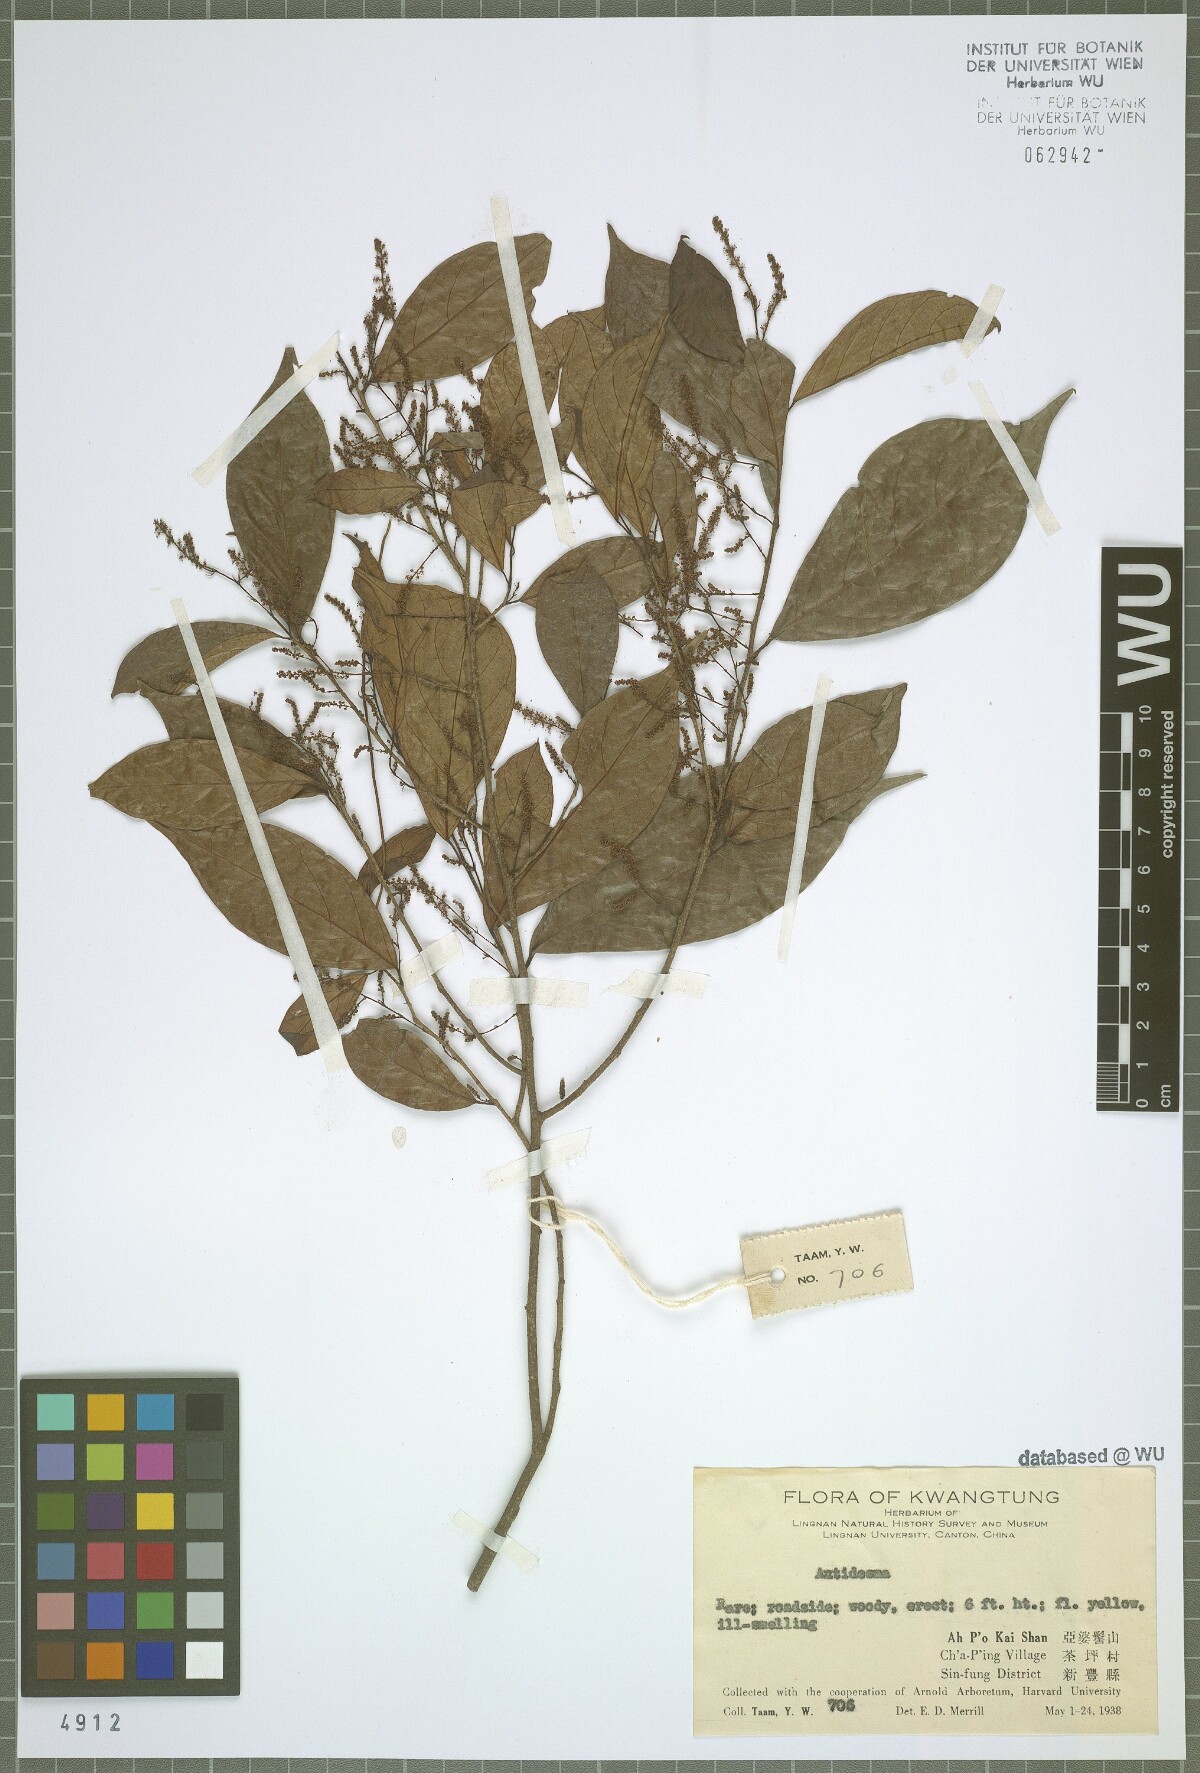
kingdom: Plantae
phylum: Tracheophyta
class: Magnoliopsida
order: Malpighiales
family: Phyllanthaceae
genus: Antidesma
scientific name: Antidesma
